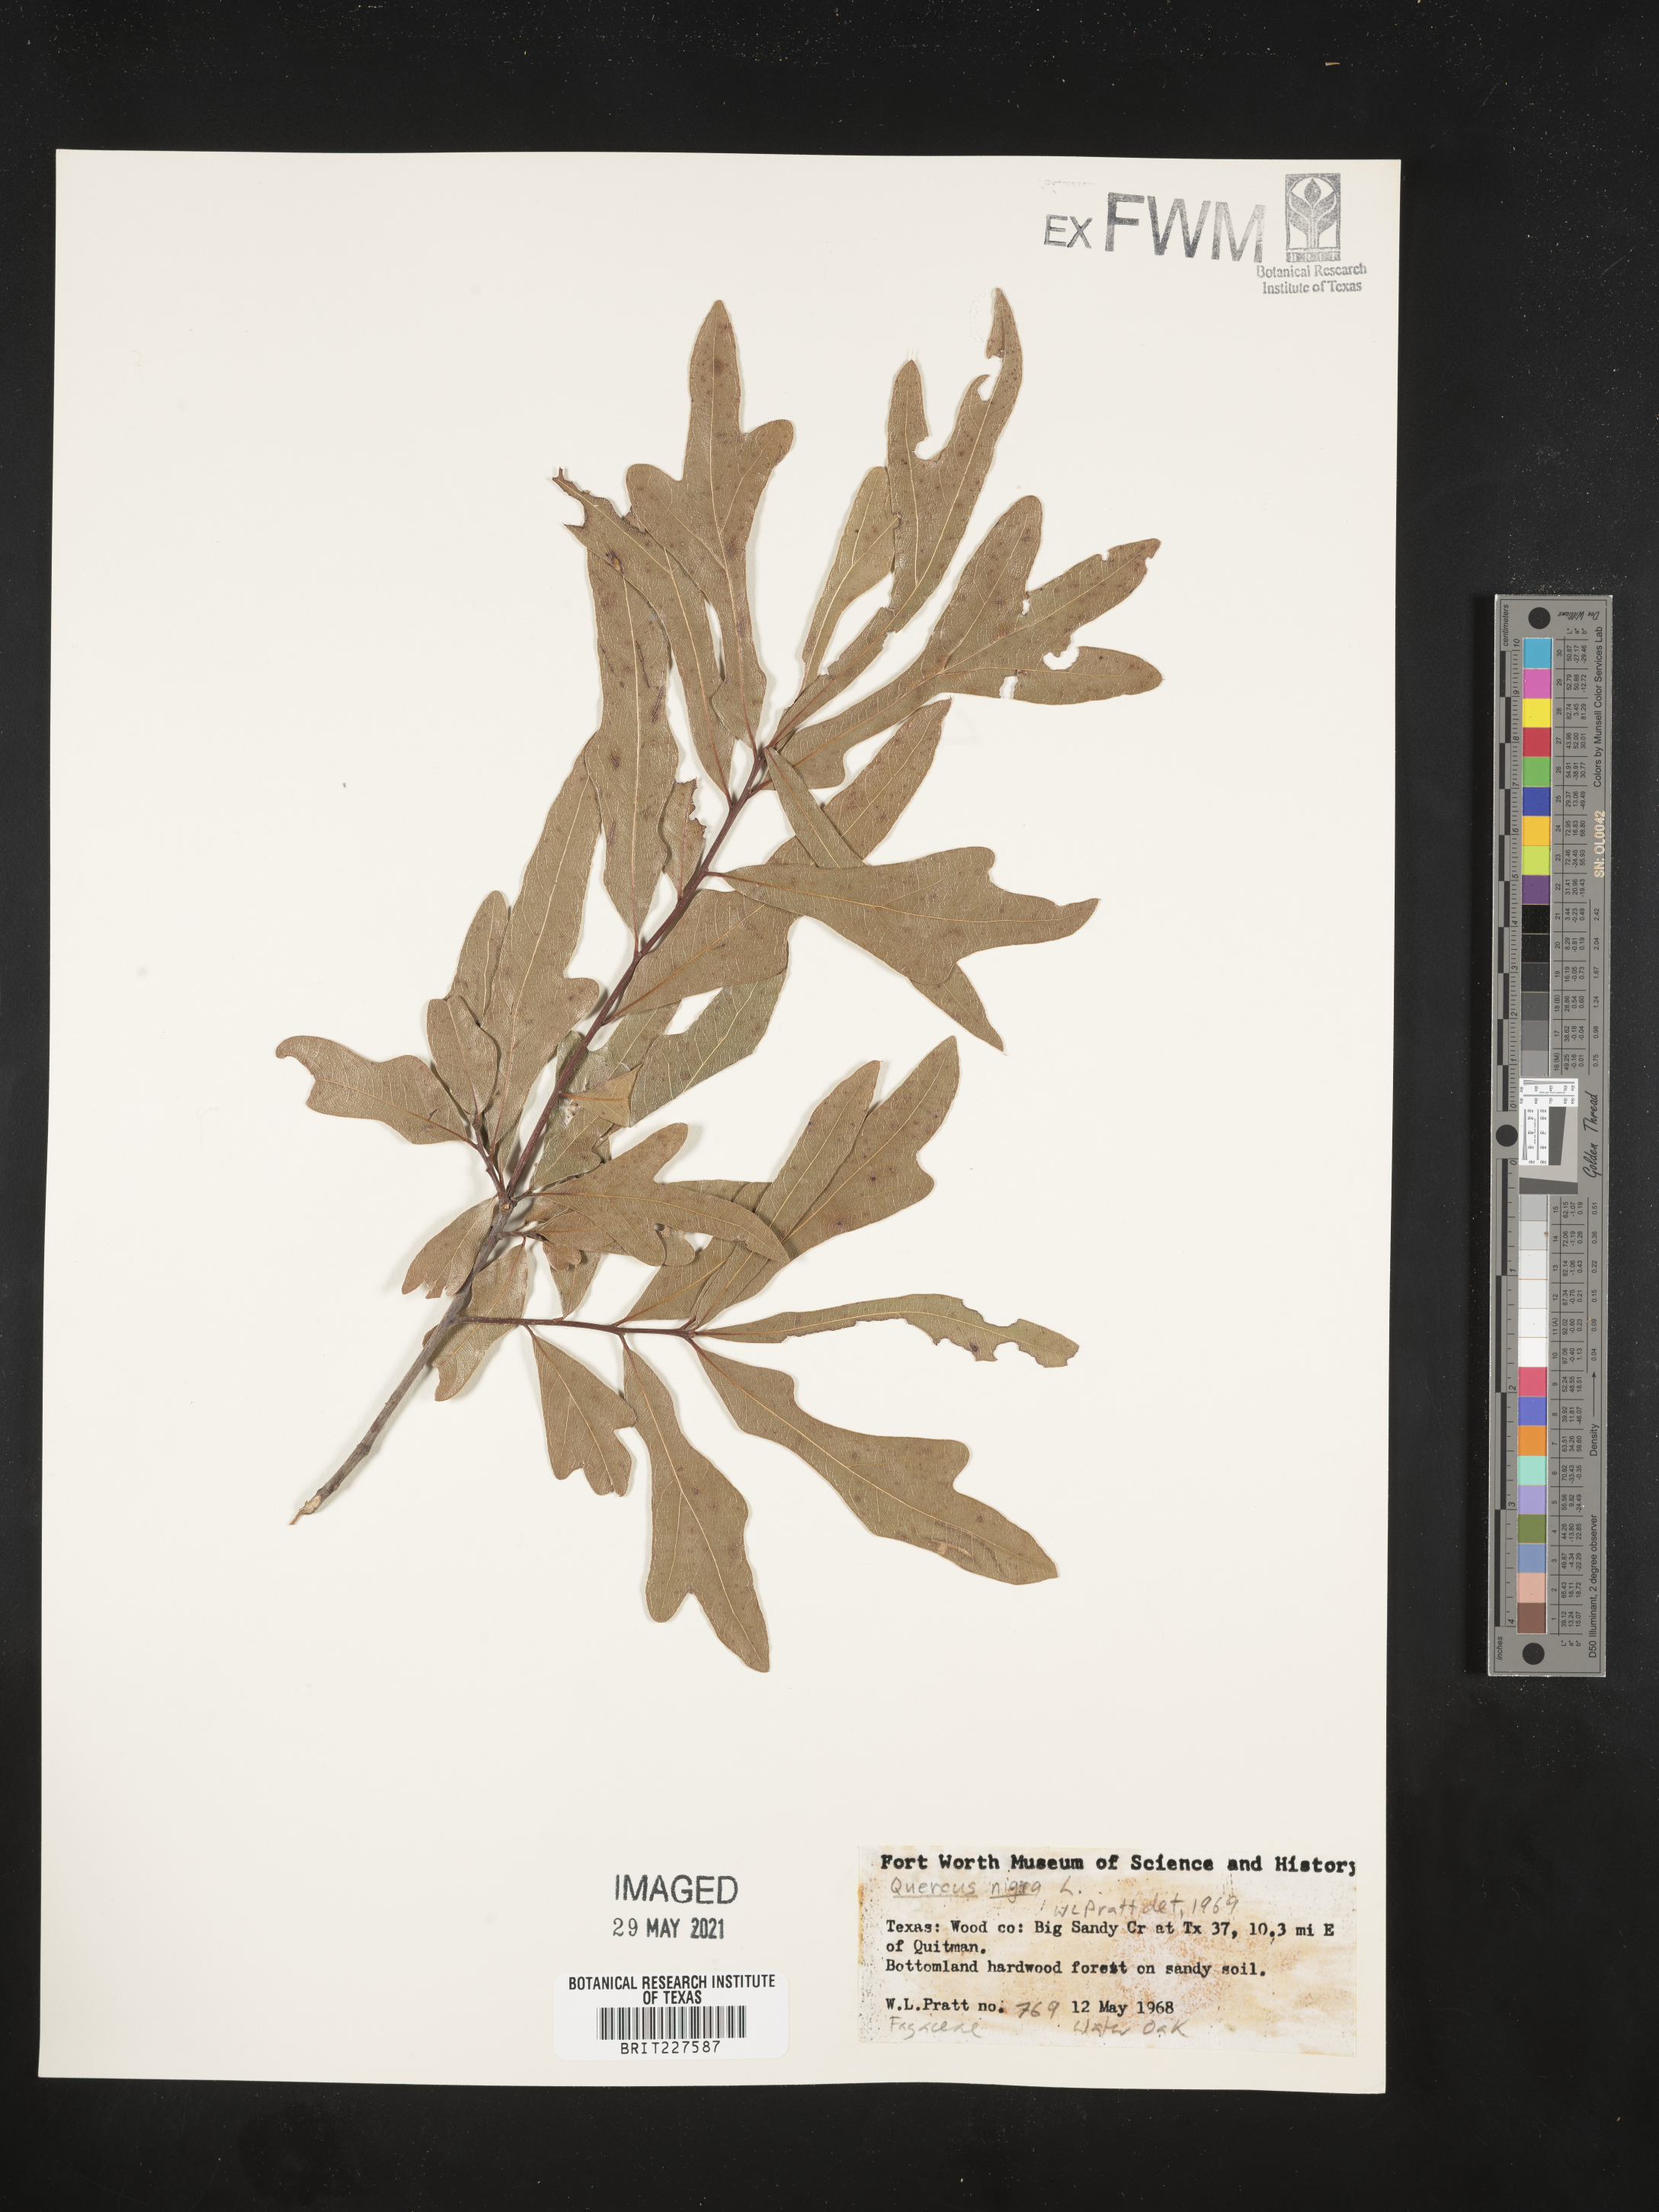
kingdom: Plantae
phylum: Tracheophyta
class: Magnoliopsida
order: Fagales
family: Fagaceae
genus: Quercus
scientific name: Quercus nigra
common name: Water oak
